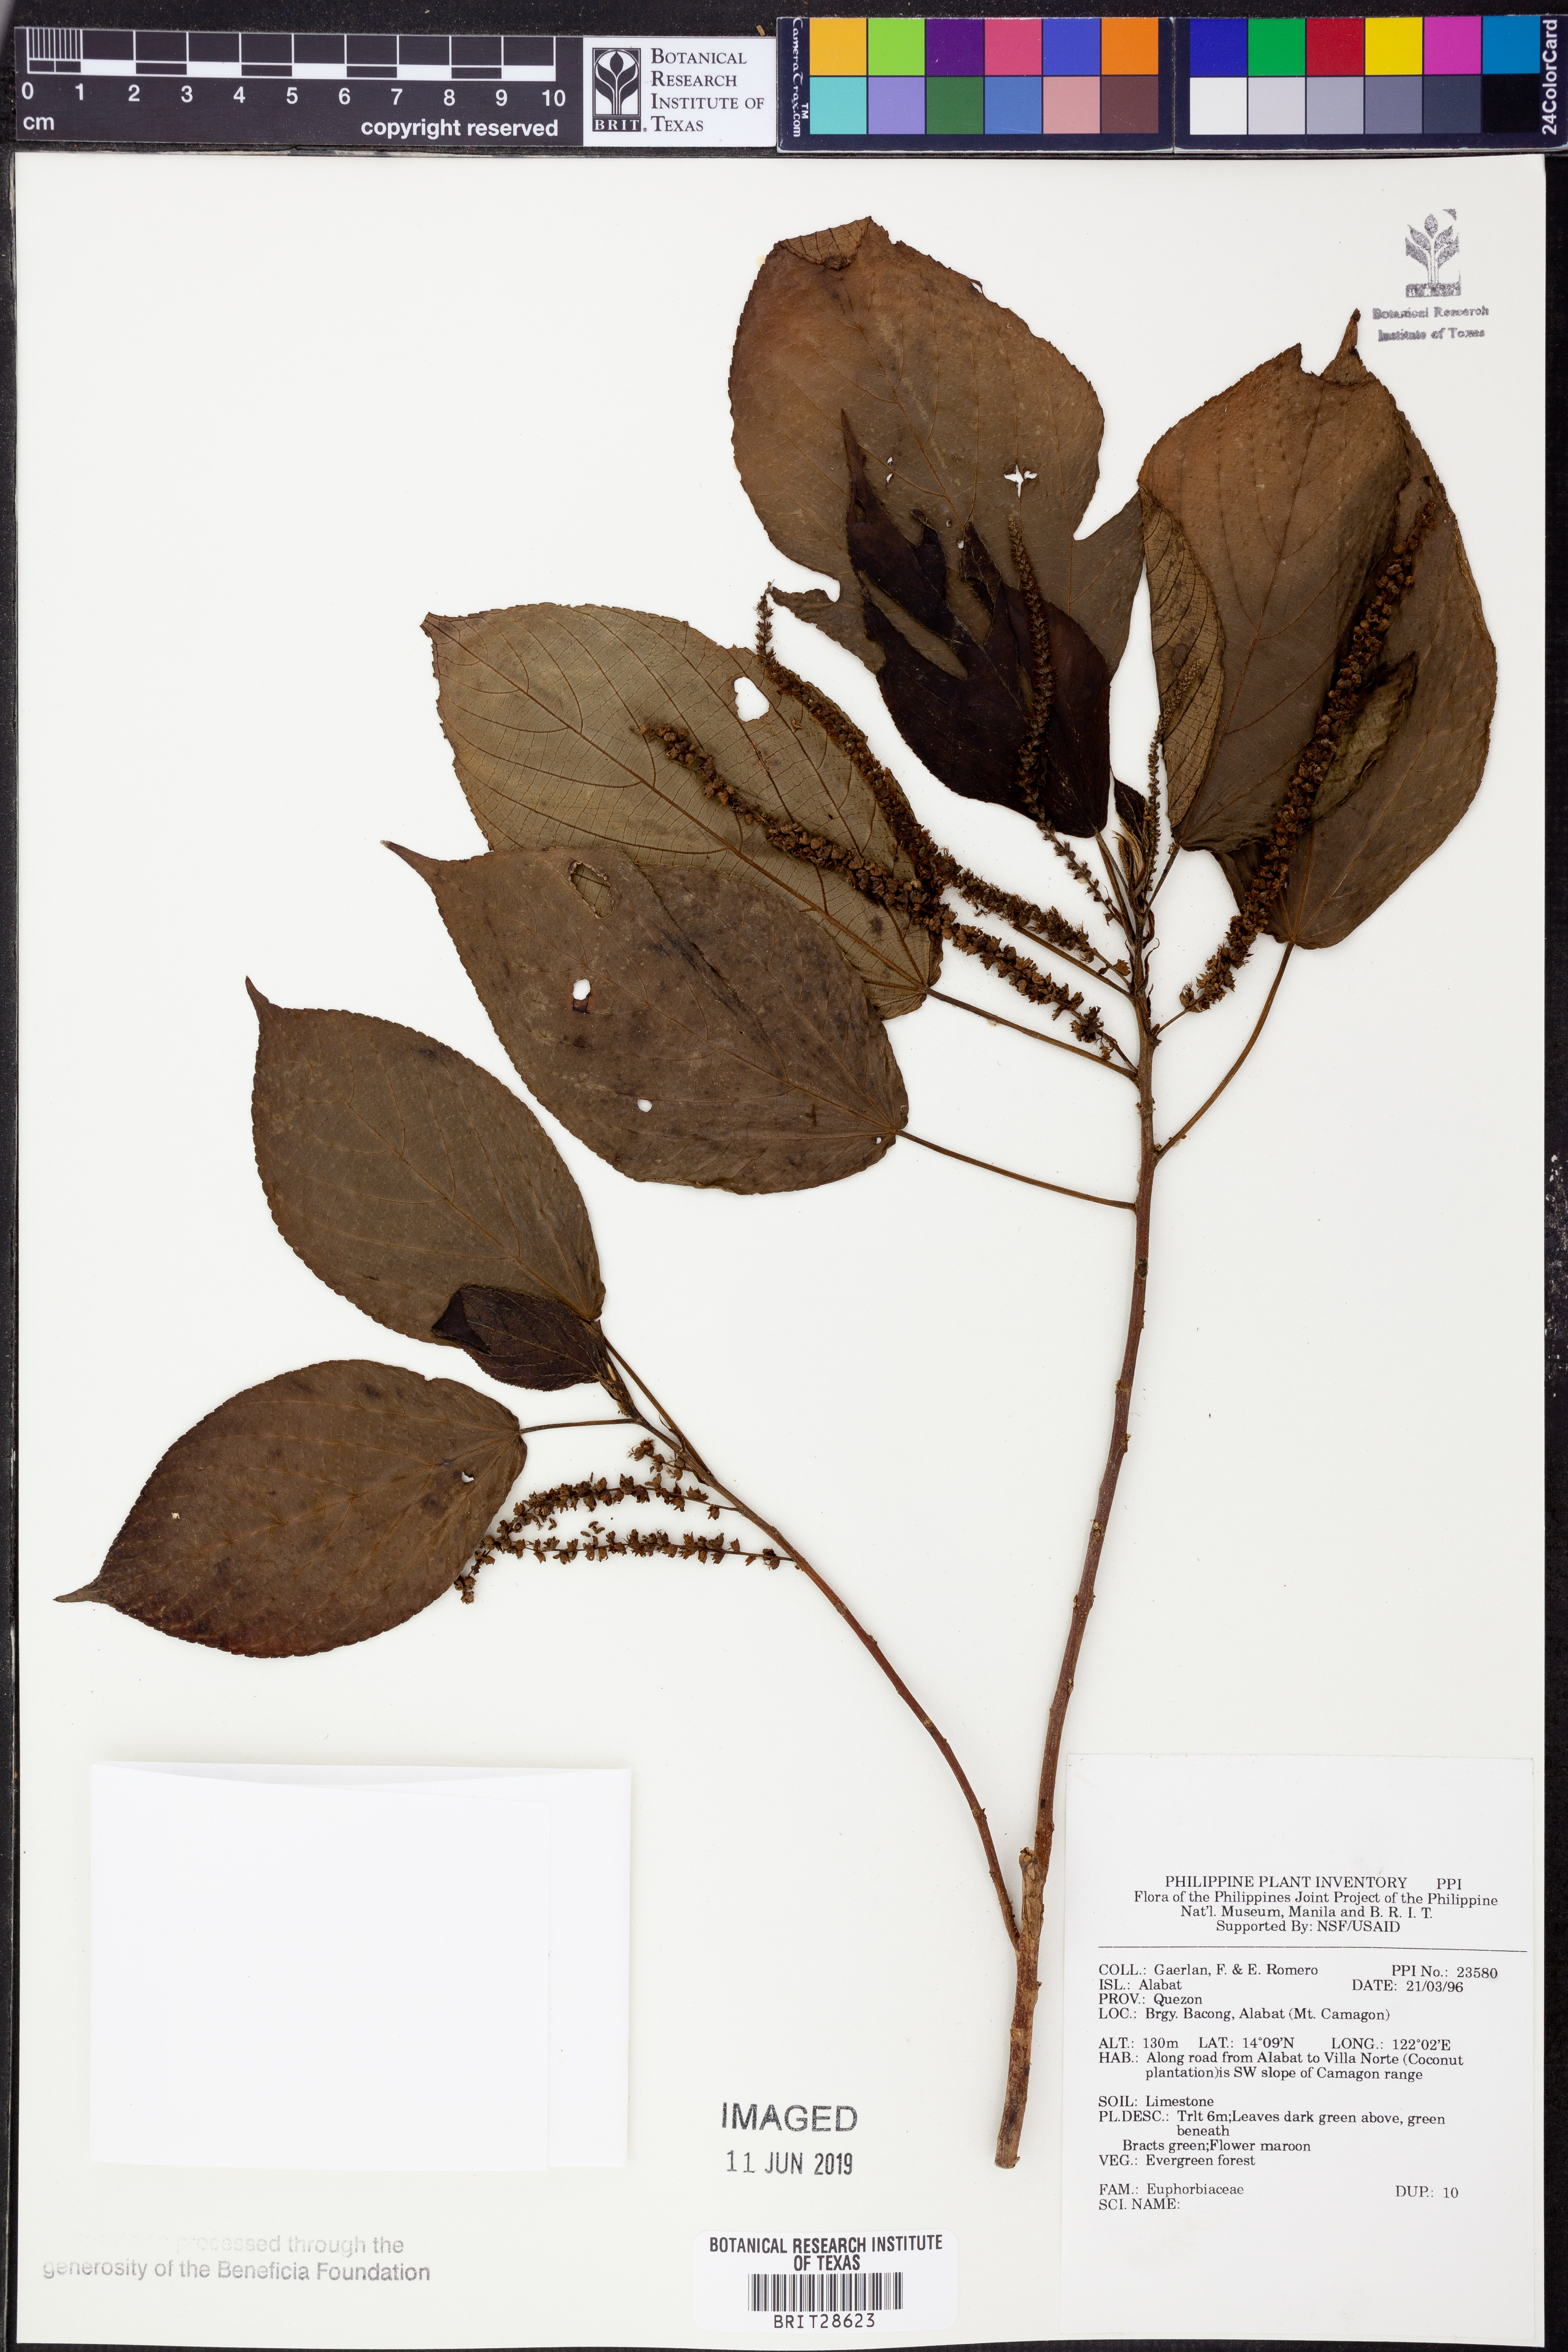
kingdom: Plantae
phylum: Tracheophyta
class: Magnoliopsida
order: Malpighiales
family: Euphorbiaceae
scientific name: Euphorbiaceae
